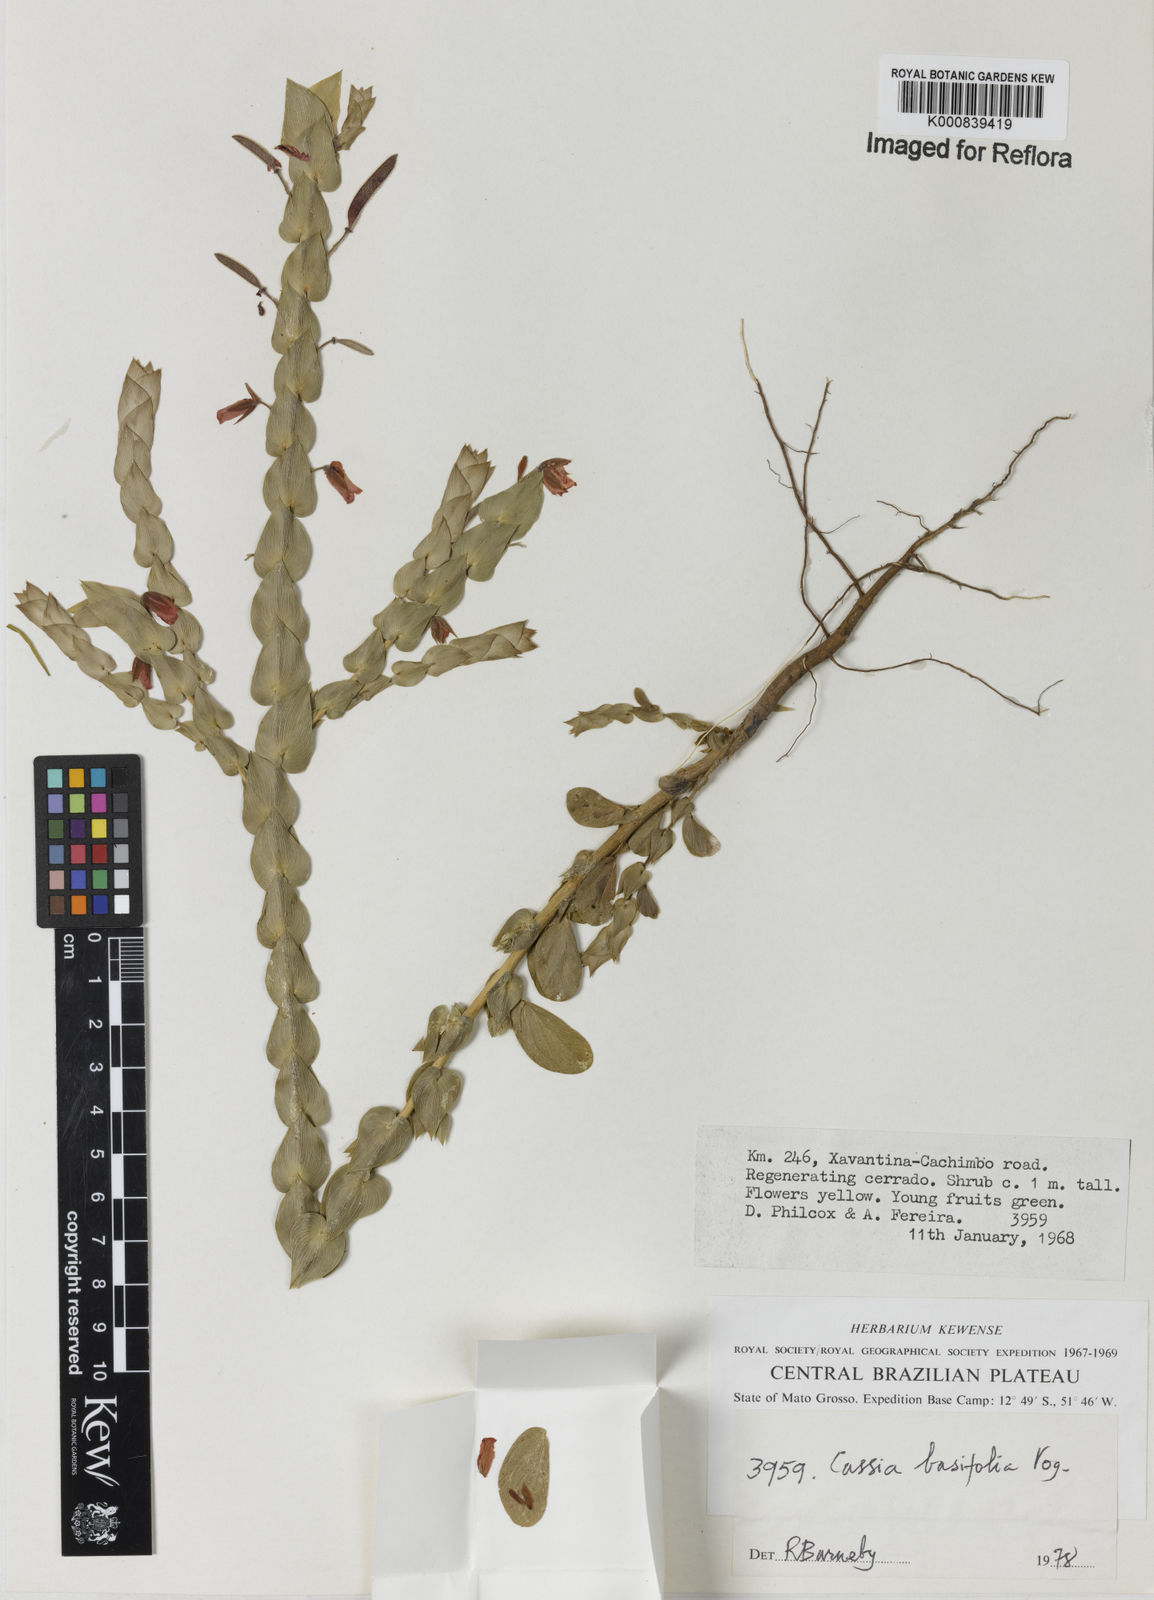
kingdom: Plantae
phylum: Tracheophyta
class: Magnoliopsida
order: Fabales
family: Fabaceae
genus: Chamaecrista
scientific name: Chamaecrista basifolia
